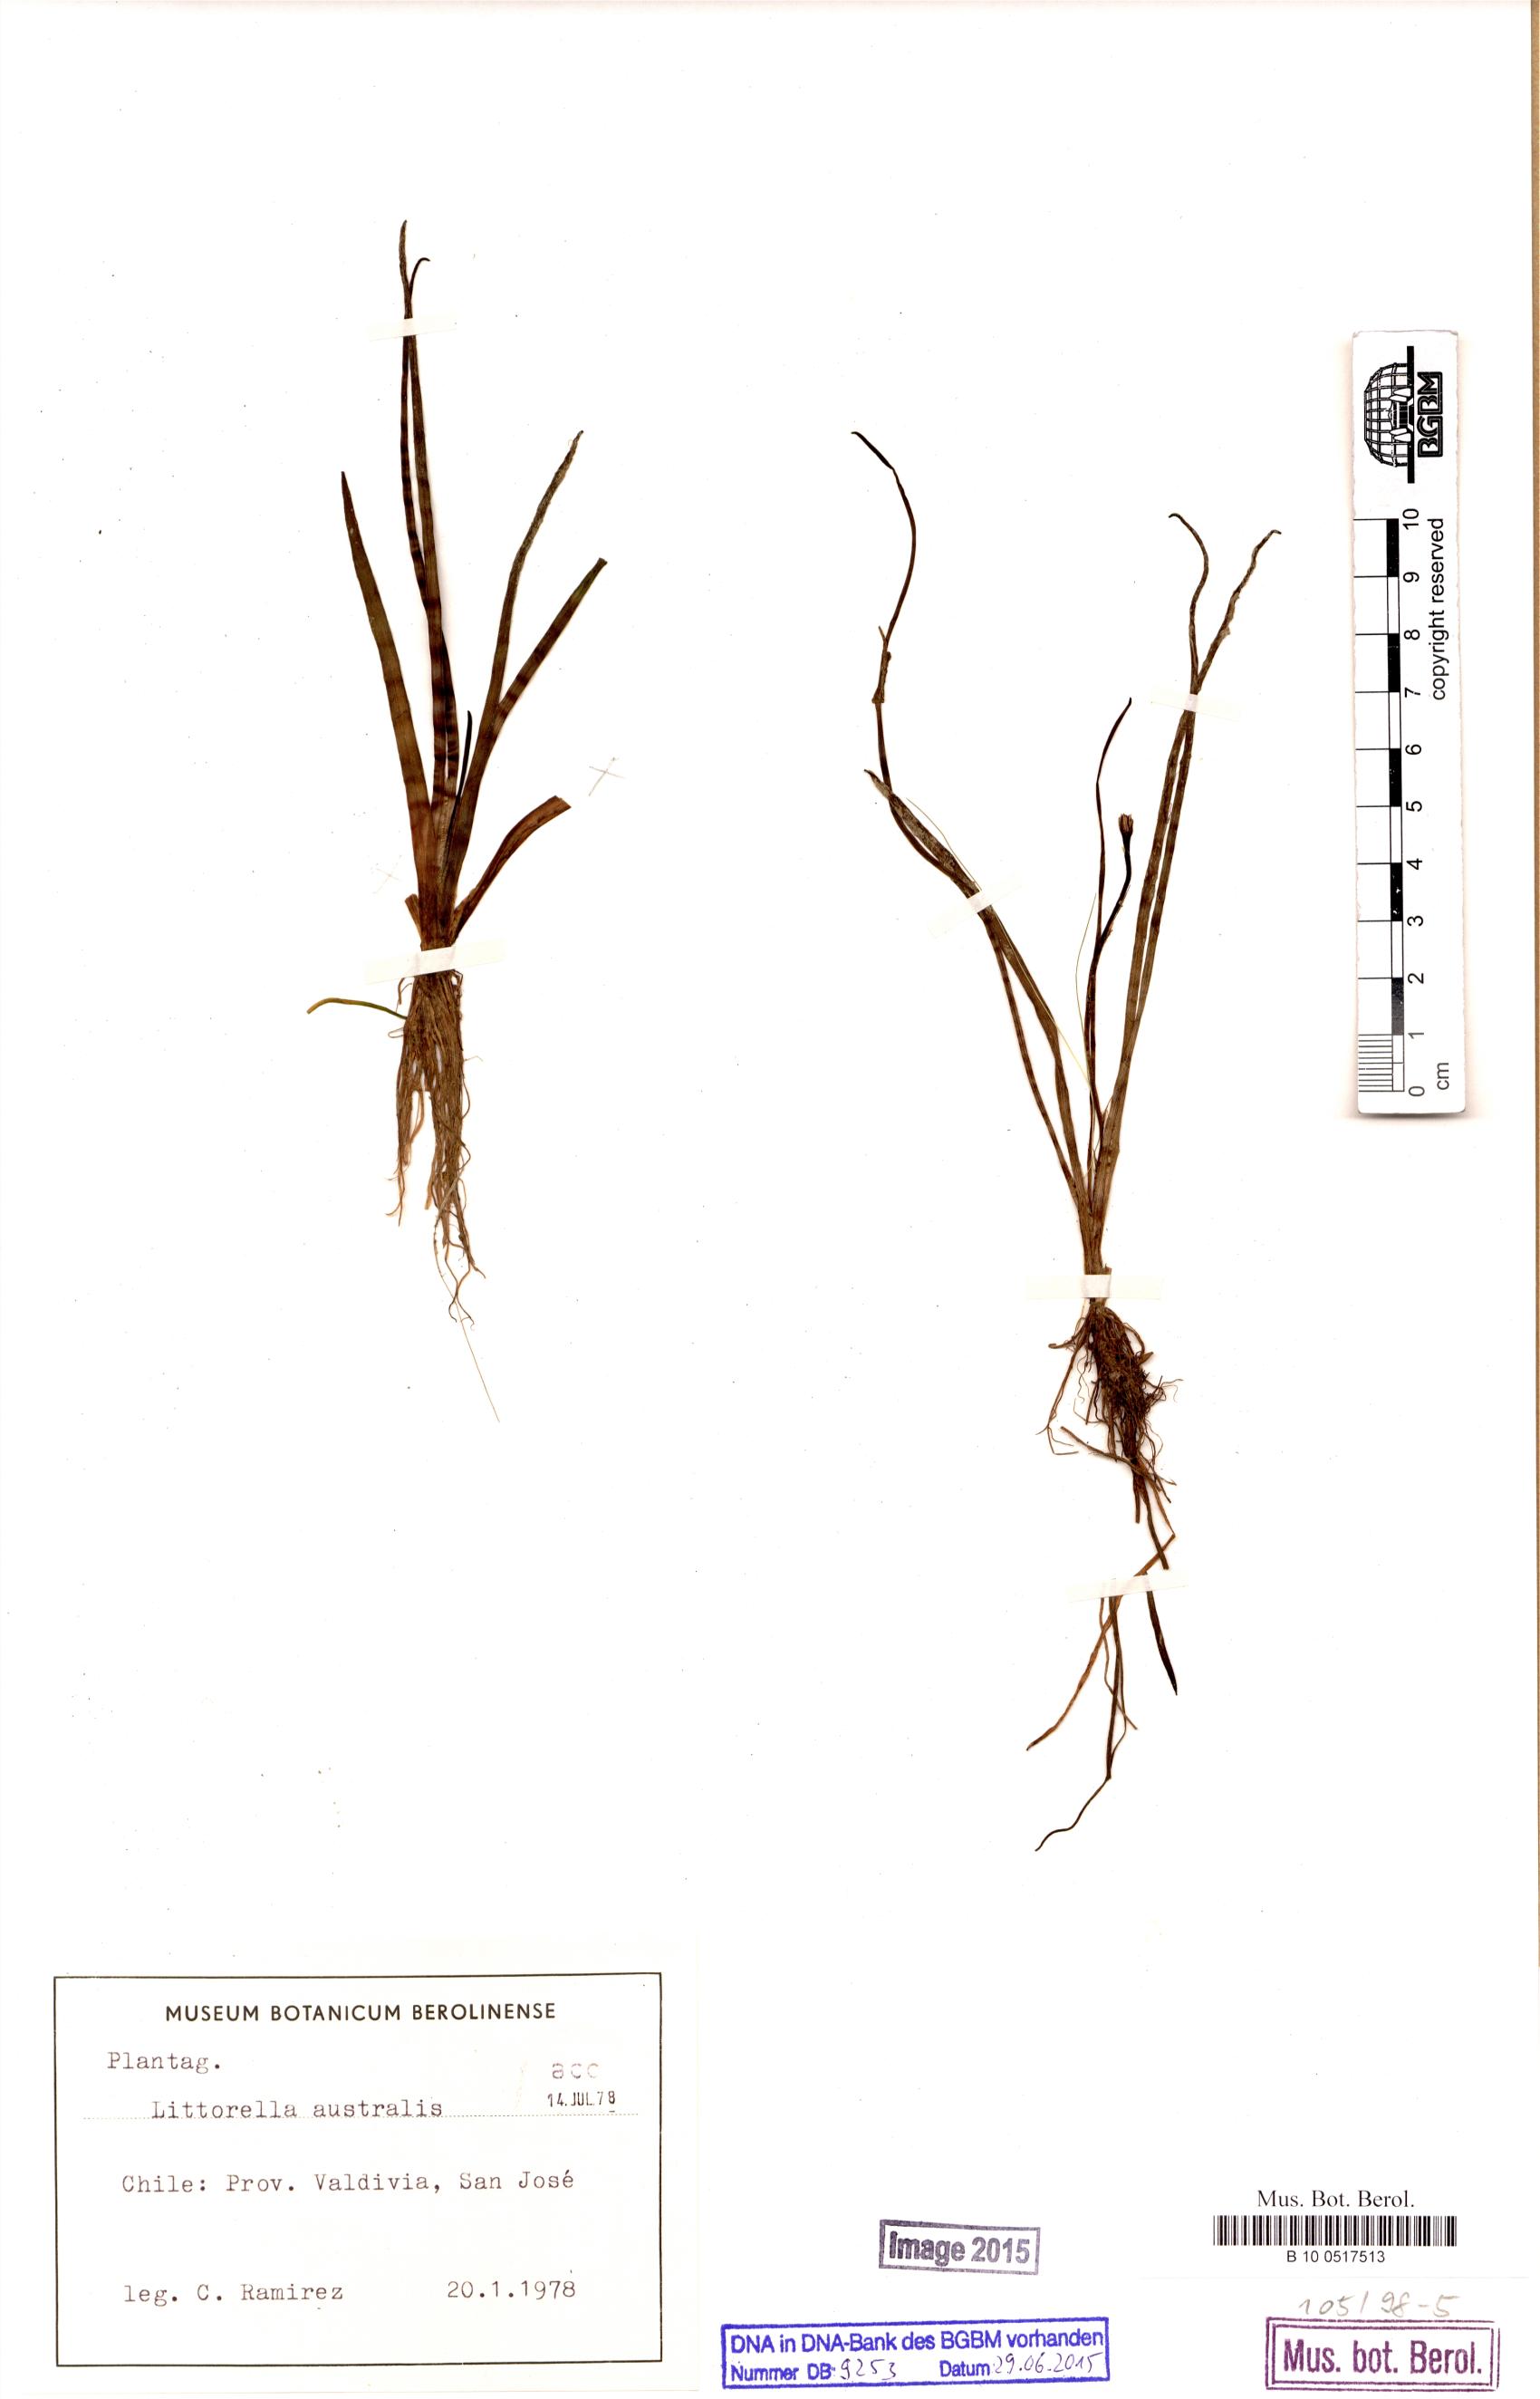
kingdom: Plantae
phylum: Tracheophyta
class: Magnoliopsida
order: Lamiales
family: Plantaginaceae
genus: Littorella
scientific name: Littorella australis
